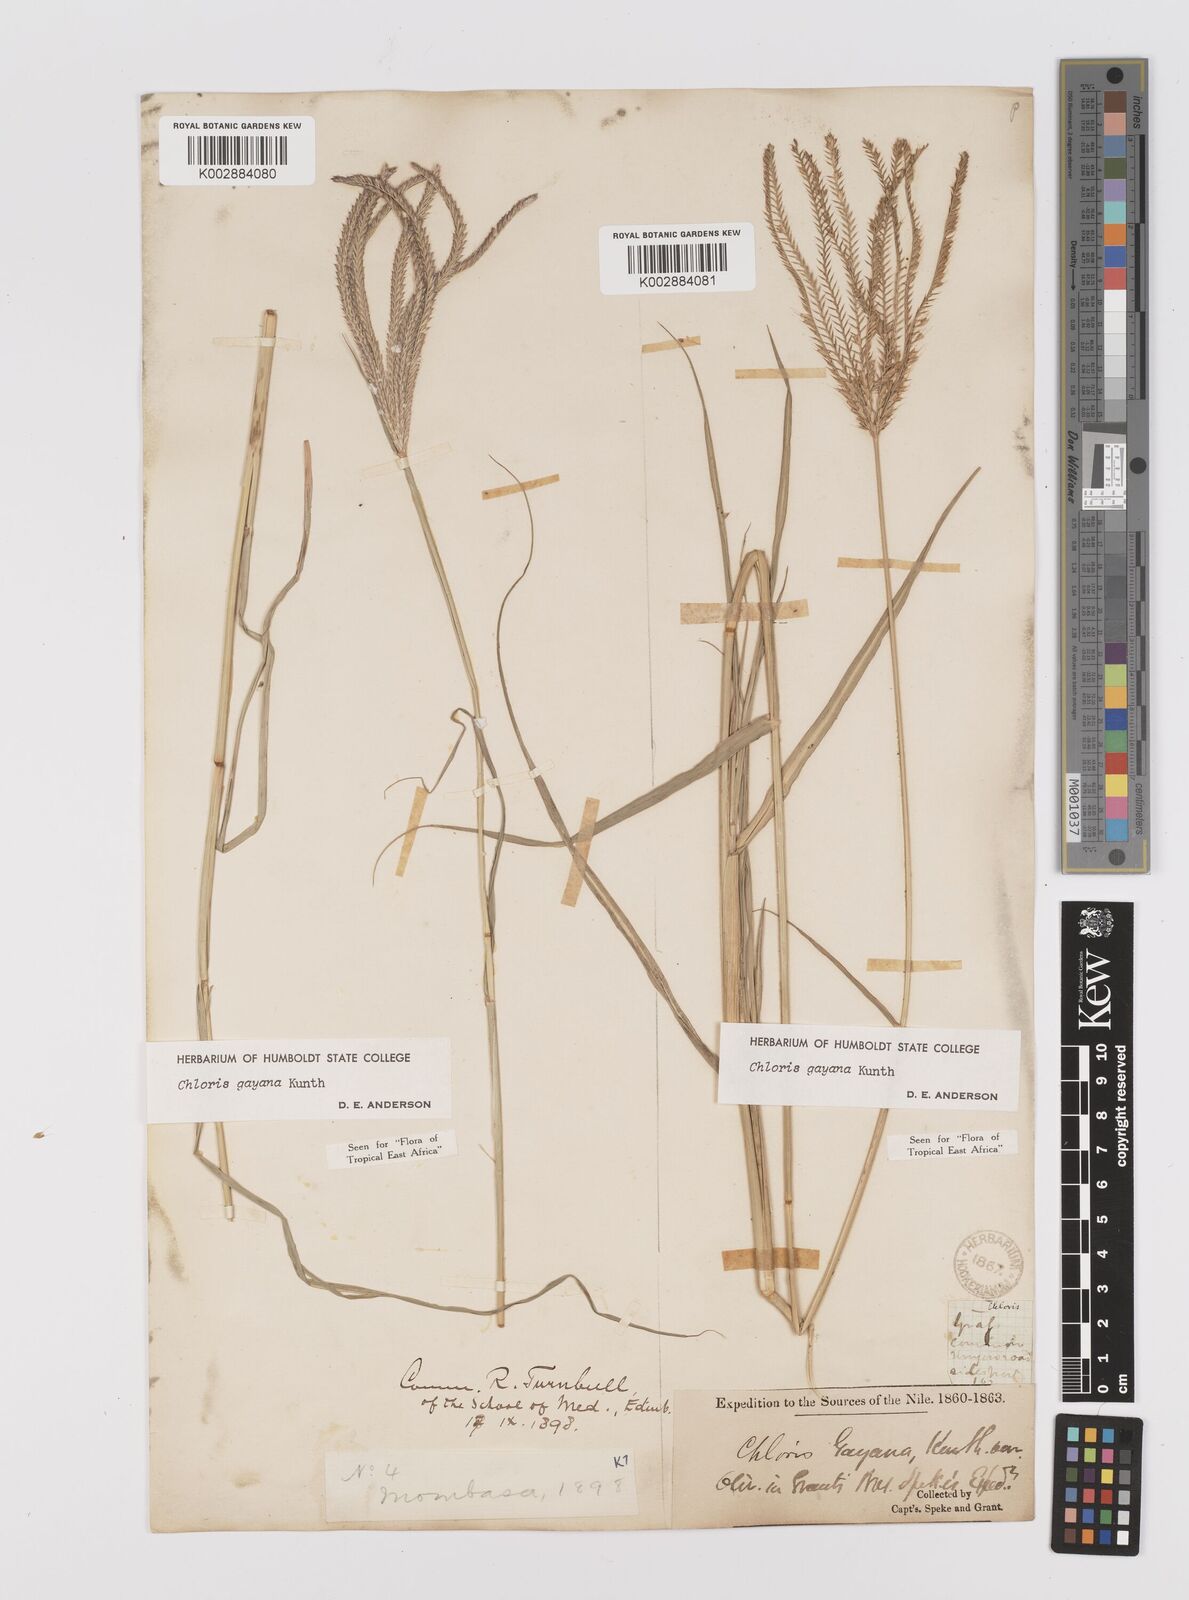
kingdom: Plantae
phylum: Tracheophyta
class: Liliopsida
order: Poales
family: Poaceae
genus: Chloris
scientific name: Chloris gayana
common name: Rhodes grass
